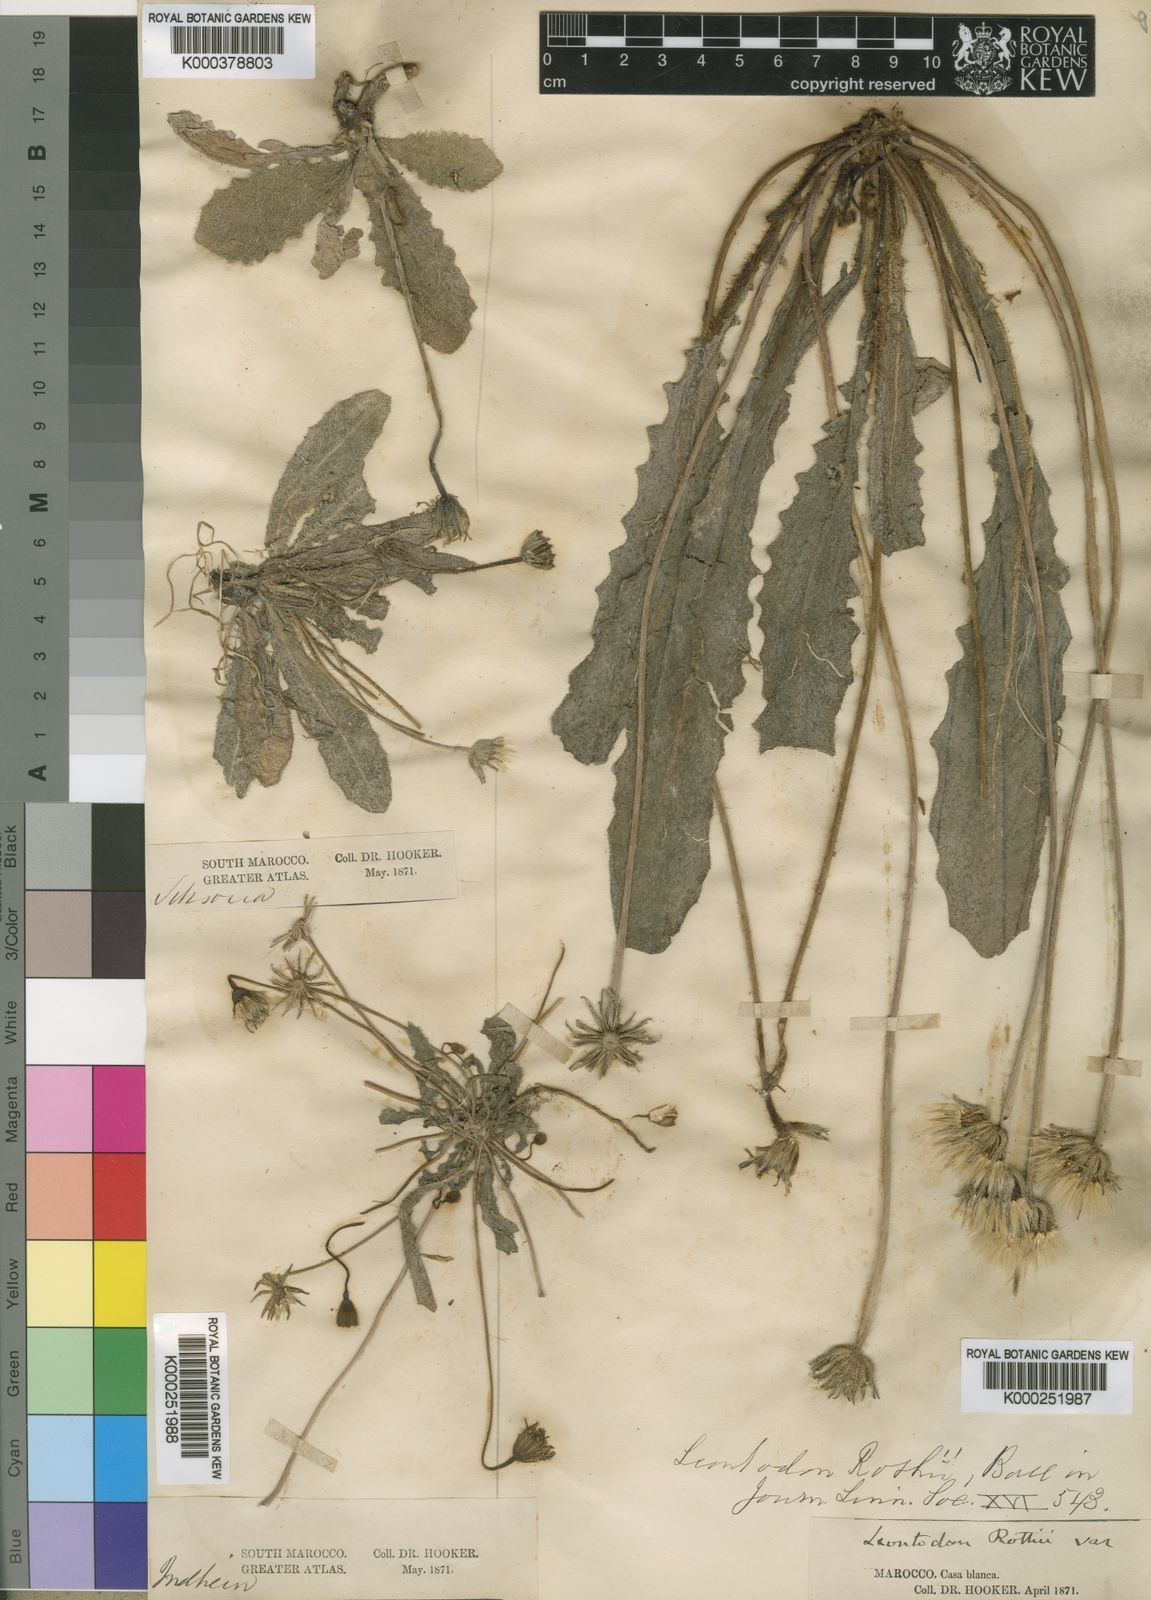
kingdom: Plantae
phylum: Tracheophyta
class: Magnoliopsida
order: Asterales
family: Asteraceae
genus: Thrincia
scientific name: Thrincia hispida
